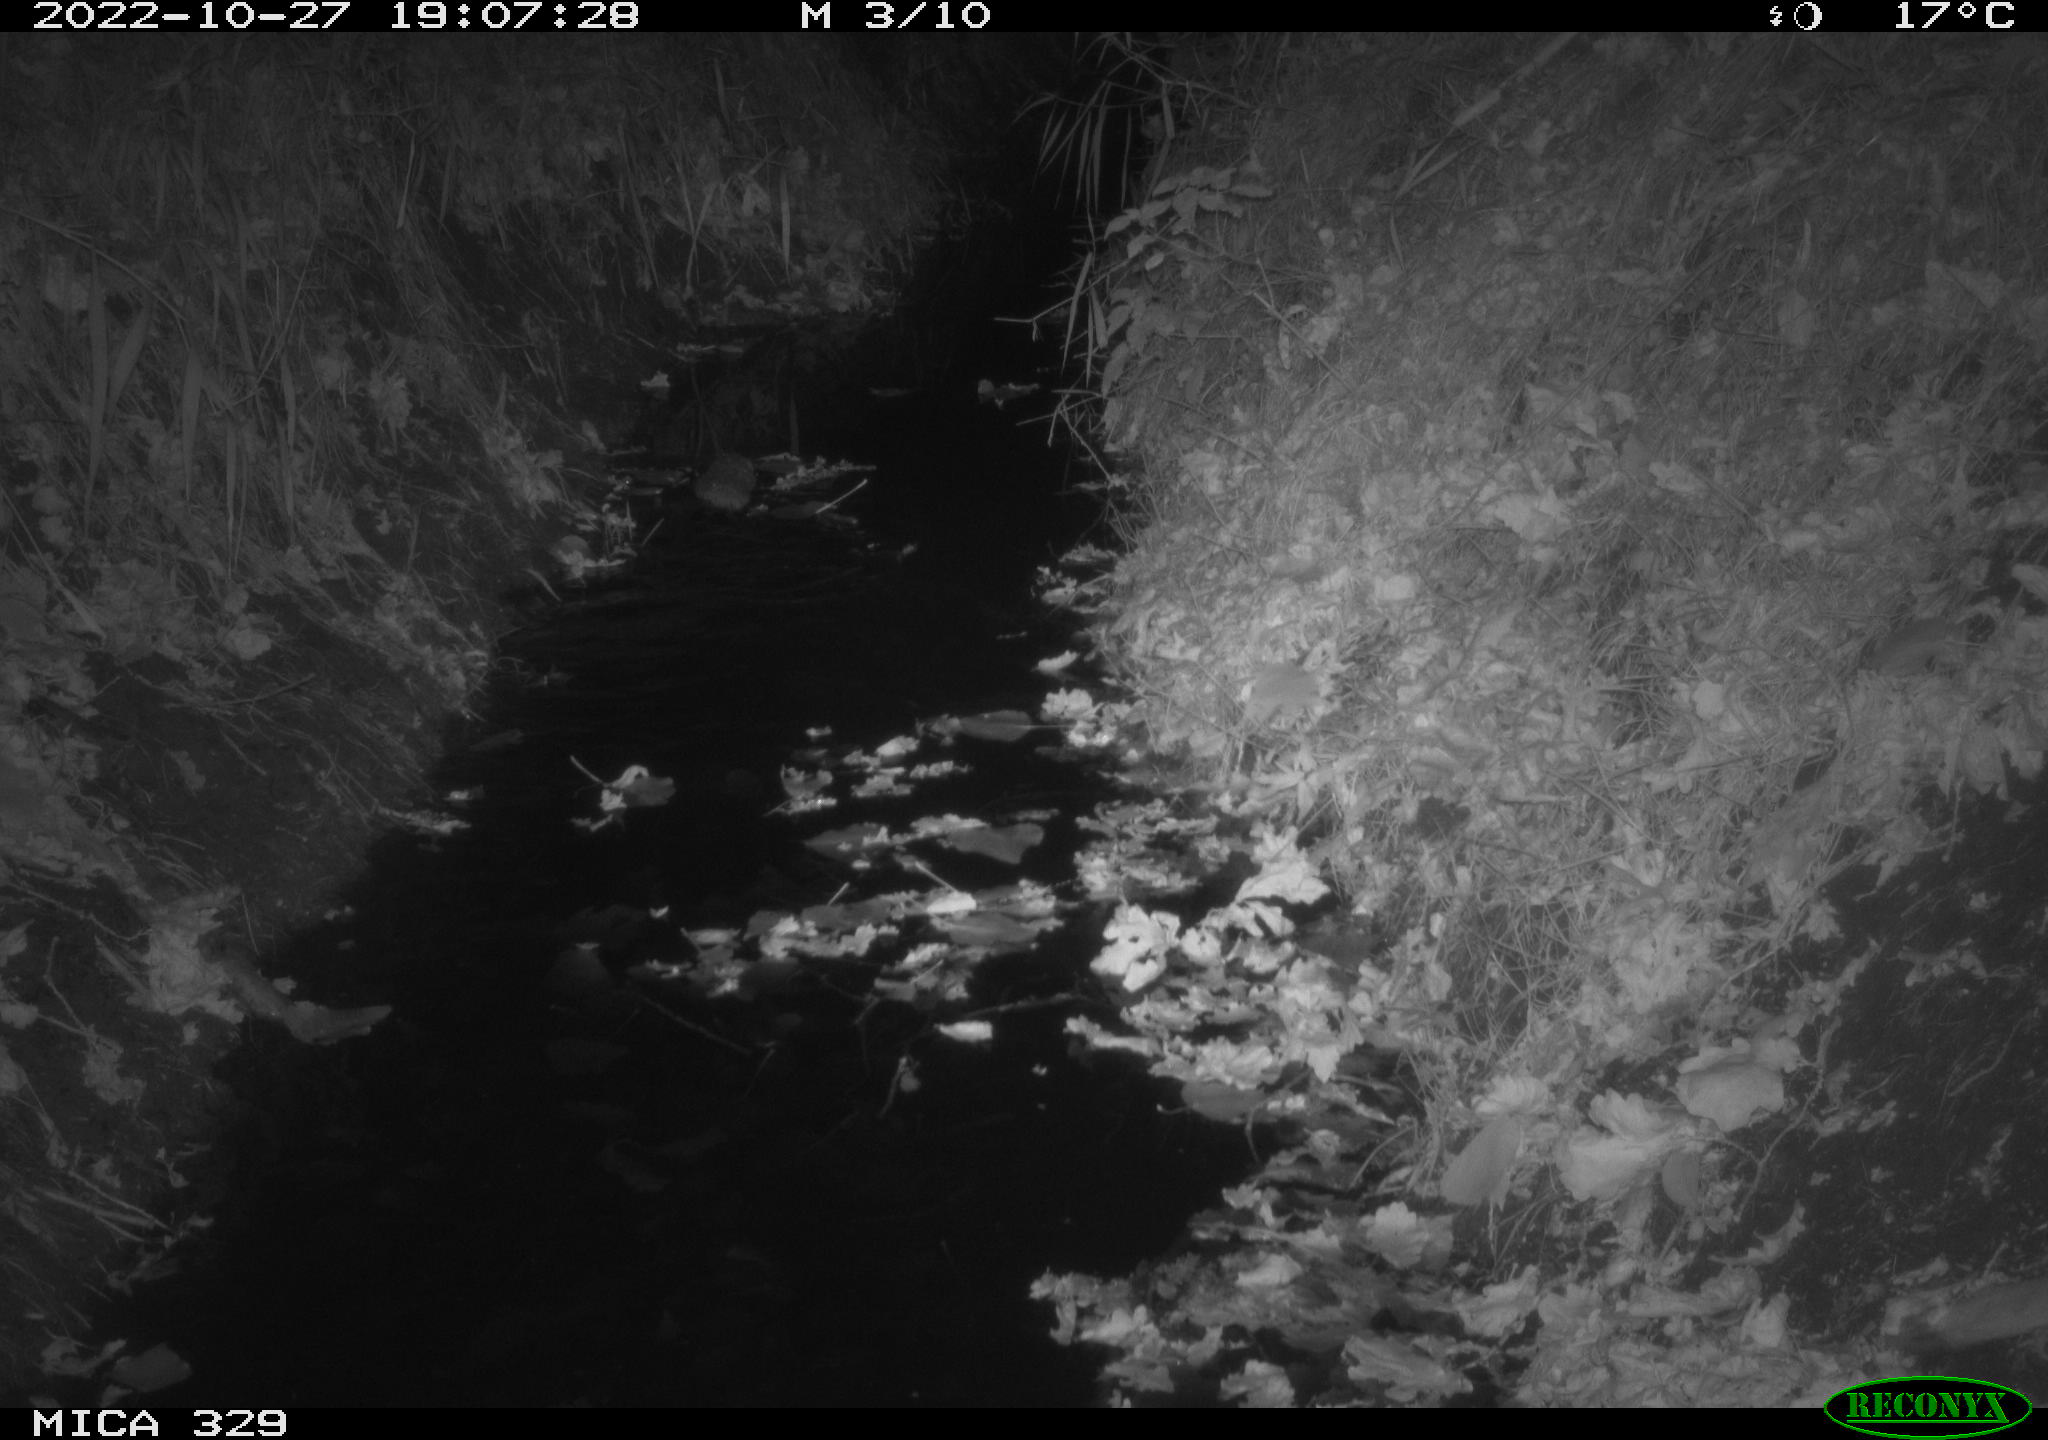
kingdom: Animalia
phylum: Chordata
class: Mammalia
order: Rodentia
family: Cricetidae
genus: Ondatra
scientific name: Ondatra zibethicus
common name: Muskrat
